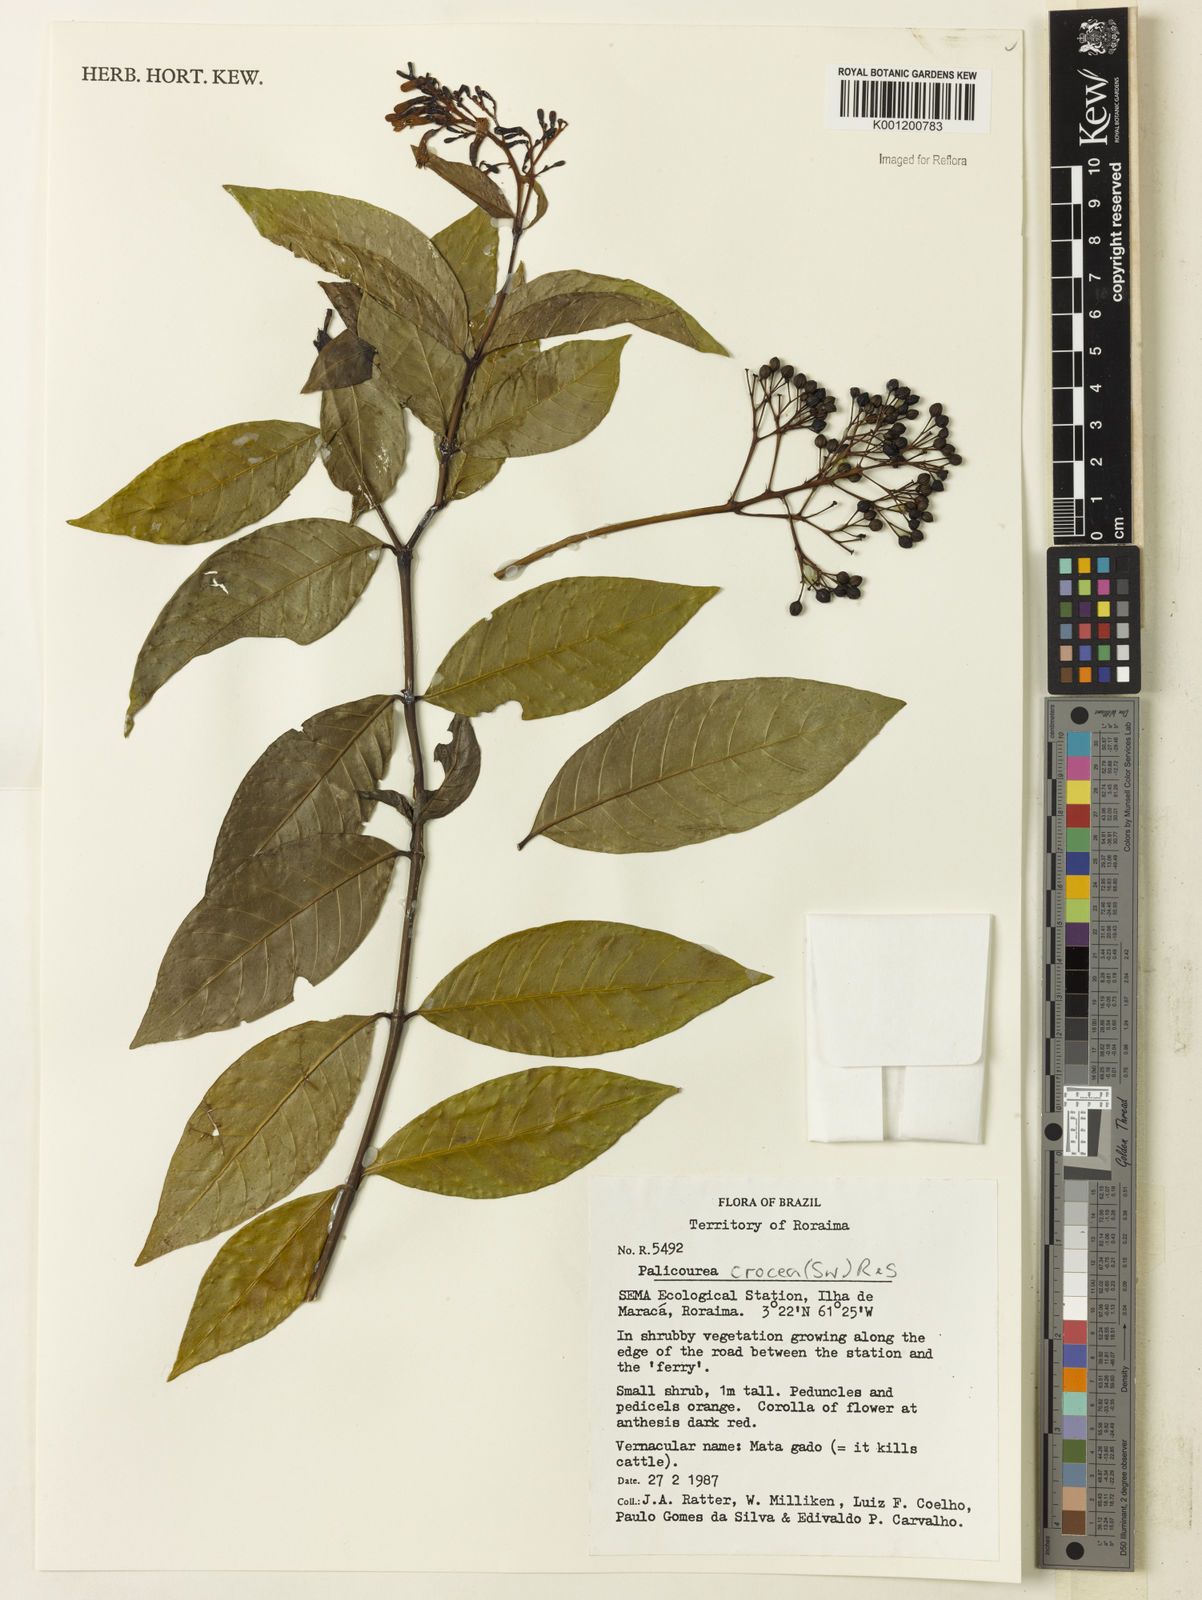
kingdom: Plantae
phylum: Tracheophyta
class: Magnoliopsida
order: Gentianales
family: Rubiaceae
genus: Palicourea
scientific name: Palicourea crocea
